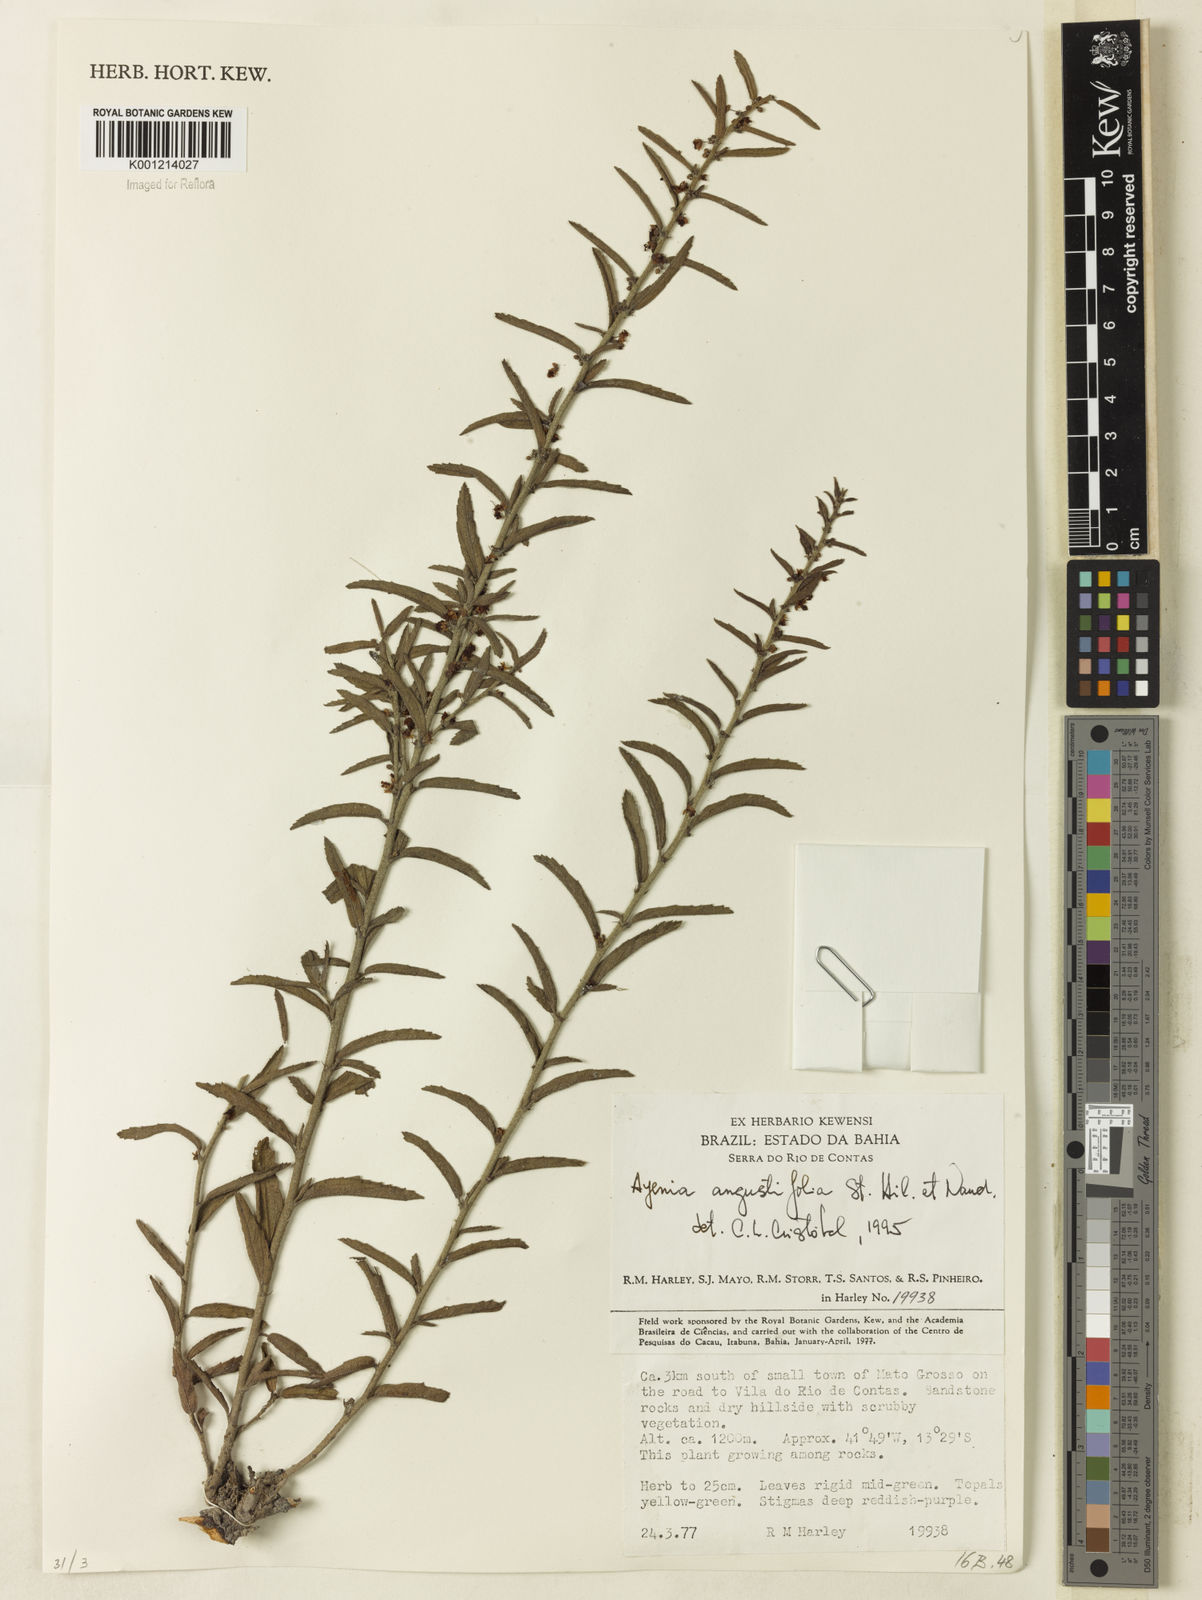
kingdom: Plantae
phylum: Tracheophyta
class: Magnoliopsida
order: Malvales
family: Malvaceae
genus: Ayenia
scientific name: Ayenia angustifolia
